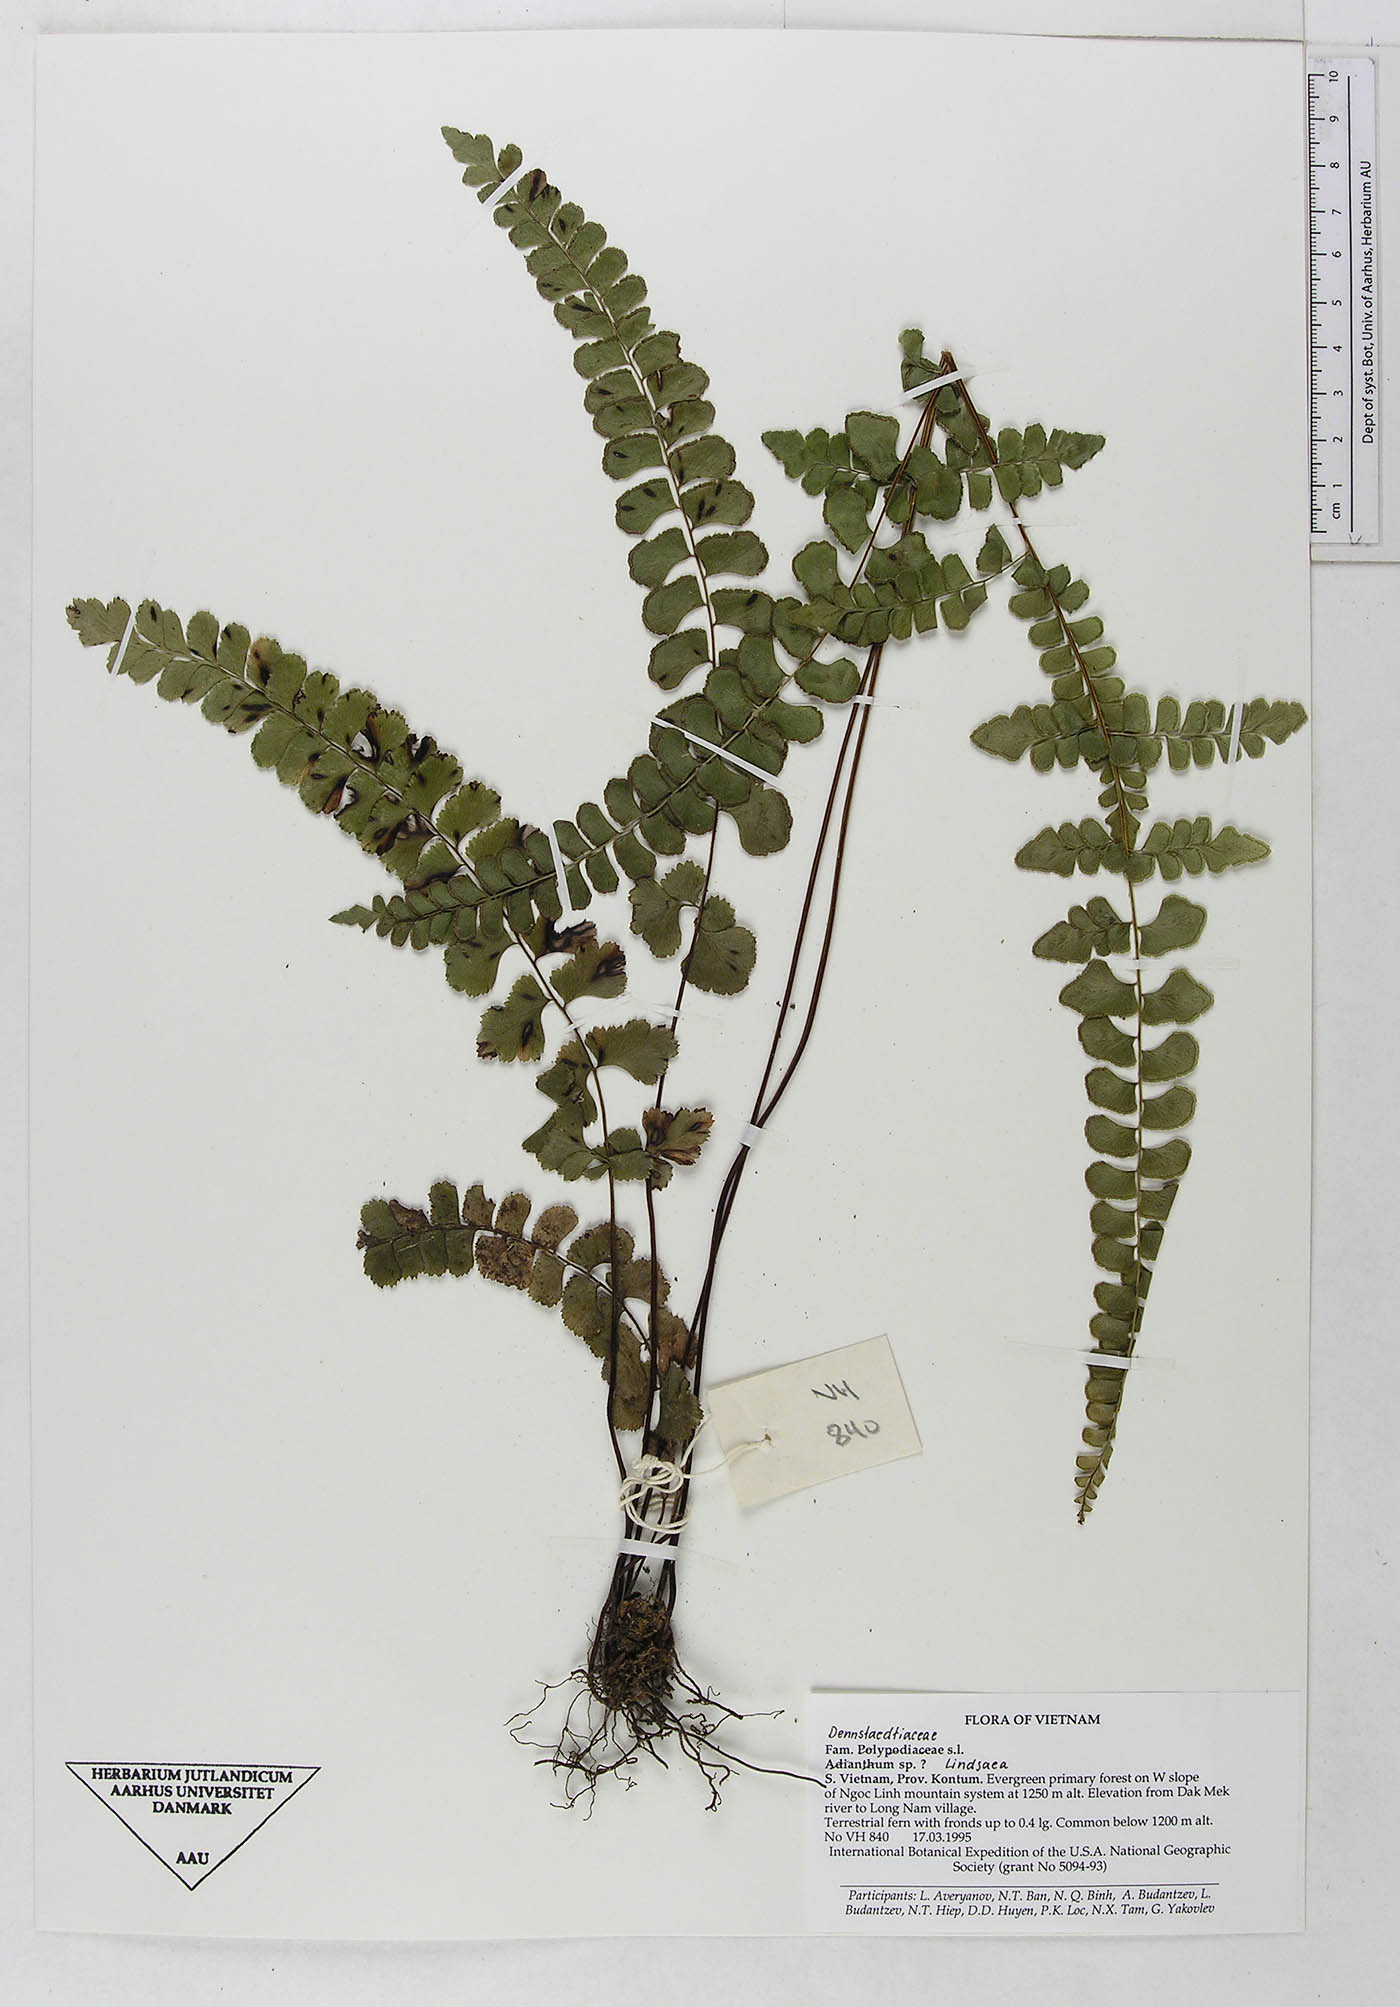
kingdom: Plantae
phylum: Tracheophyta
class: Polypodiopsida
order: Polypodiales
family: Dennstaedtiaceae
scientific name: Dennstaedtiaceae
